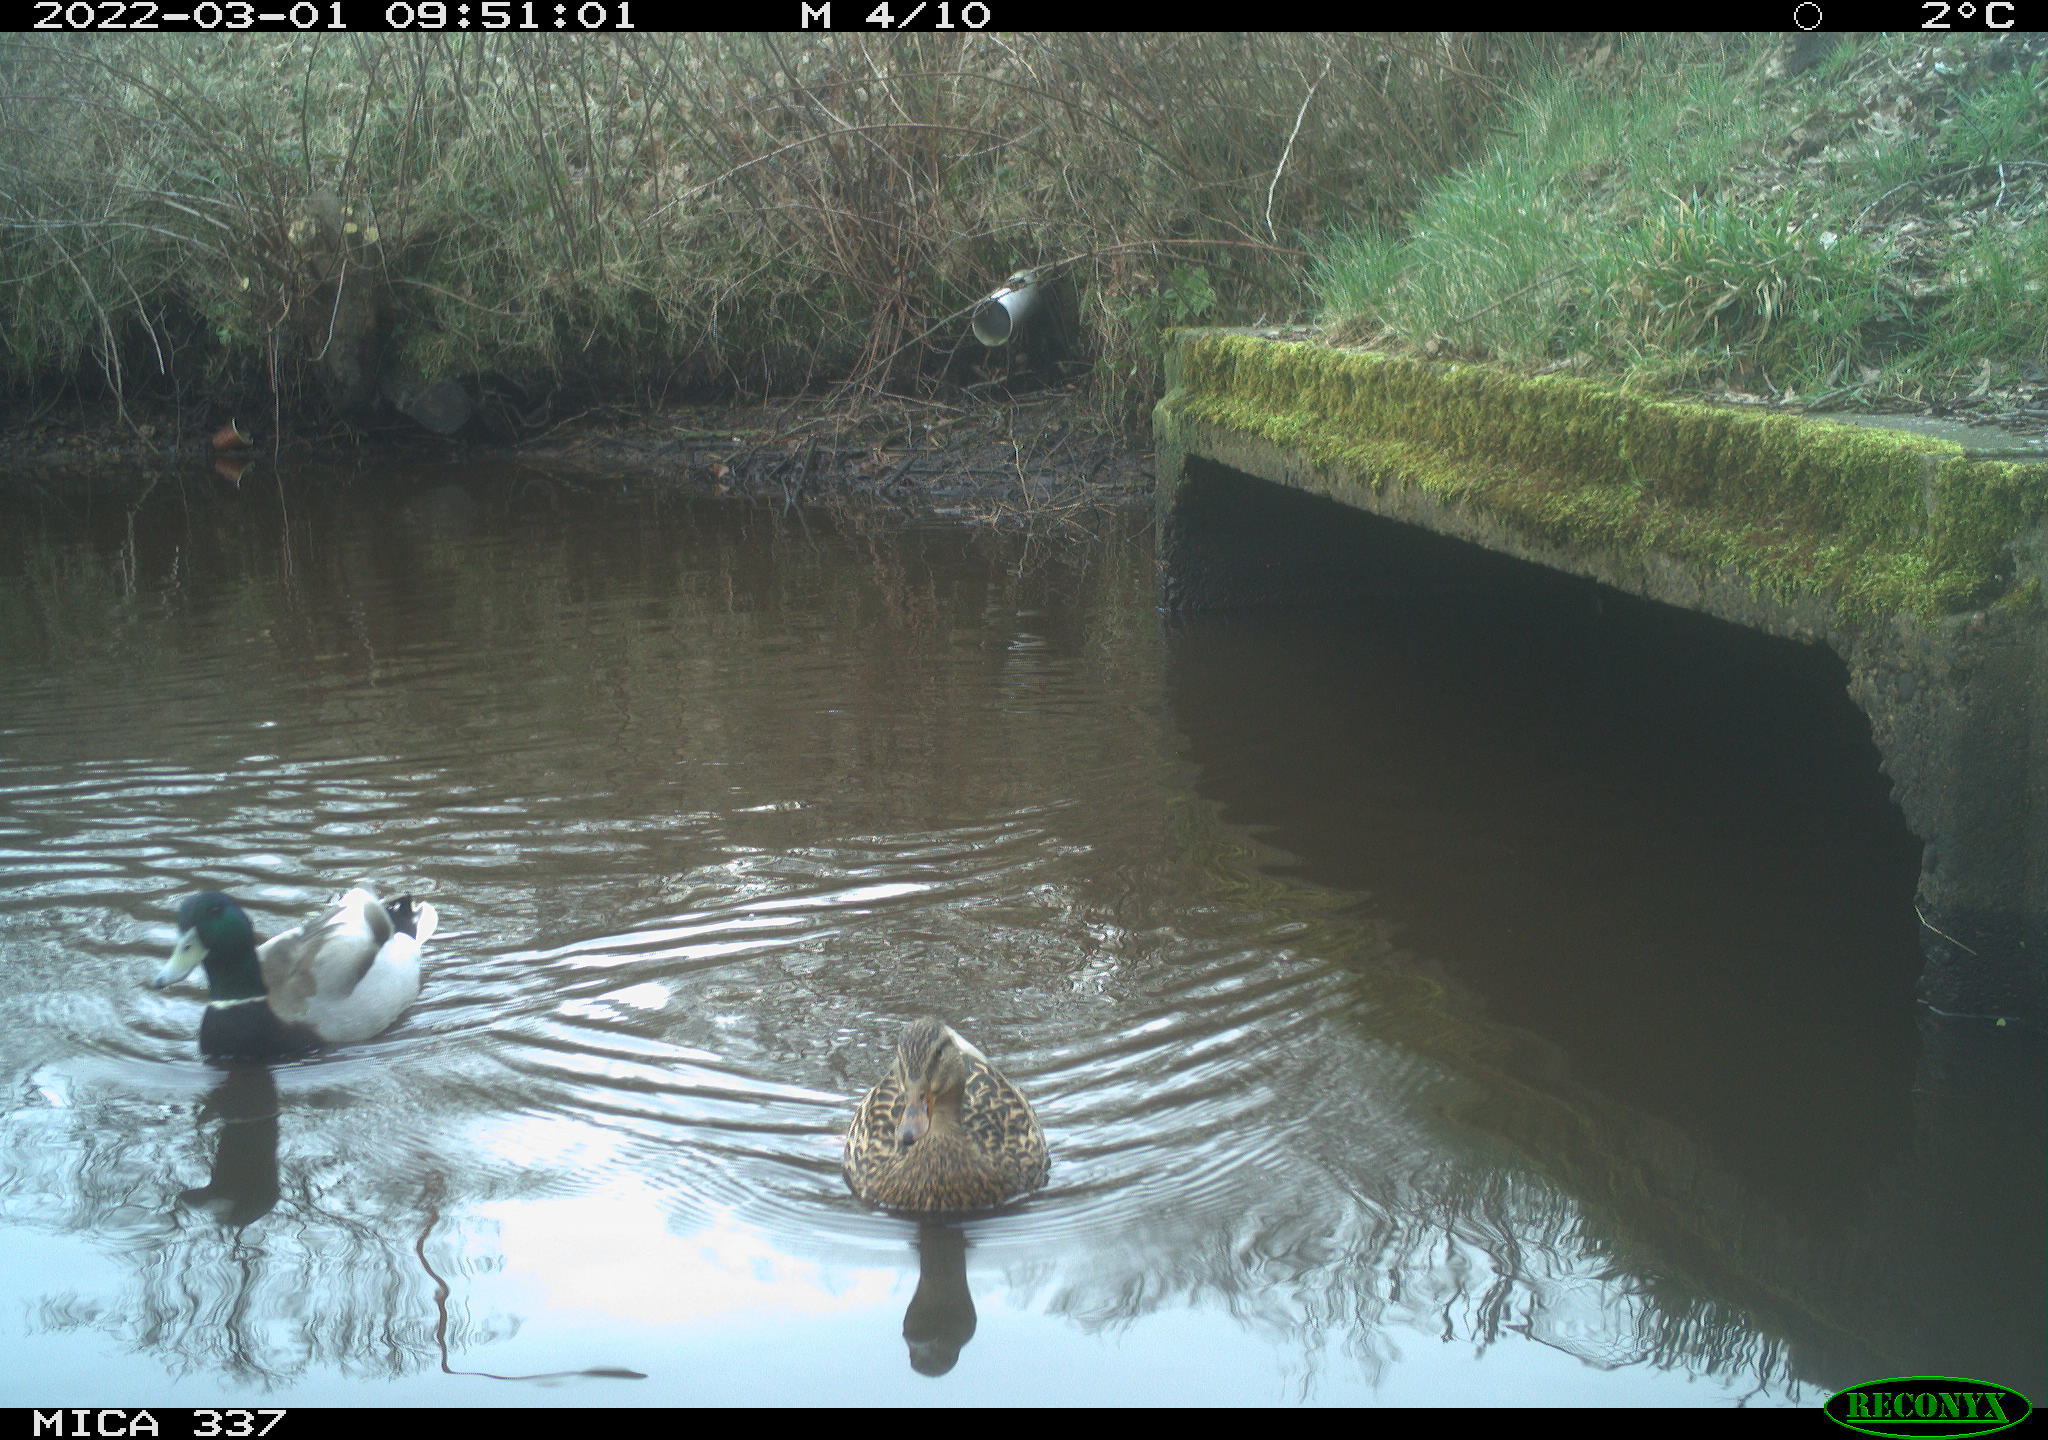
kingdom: Animalia
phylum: Chordata
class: Aves
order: Anseriformes
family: Anatidae
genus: Anas
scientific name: Anas platyrhynchos
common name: Mallard
